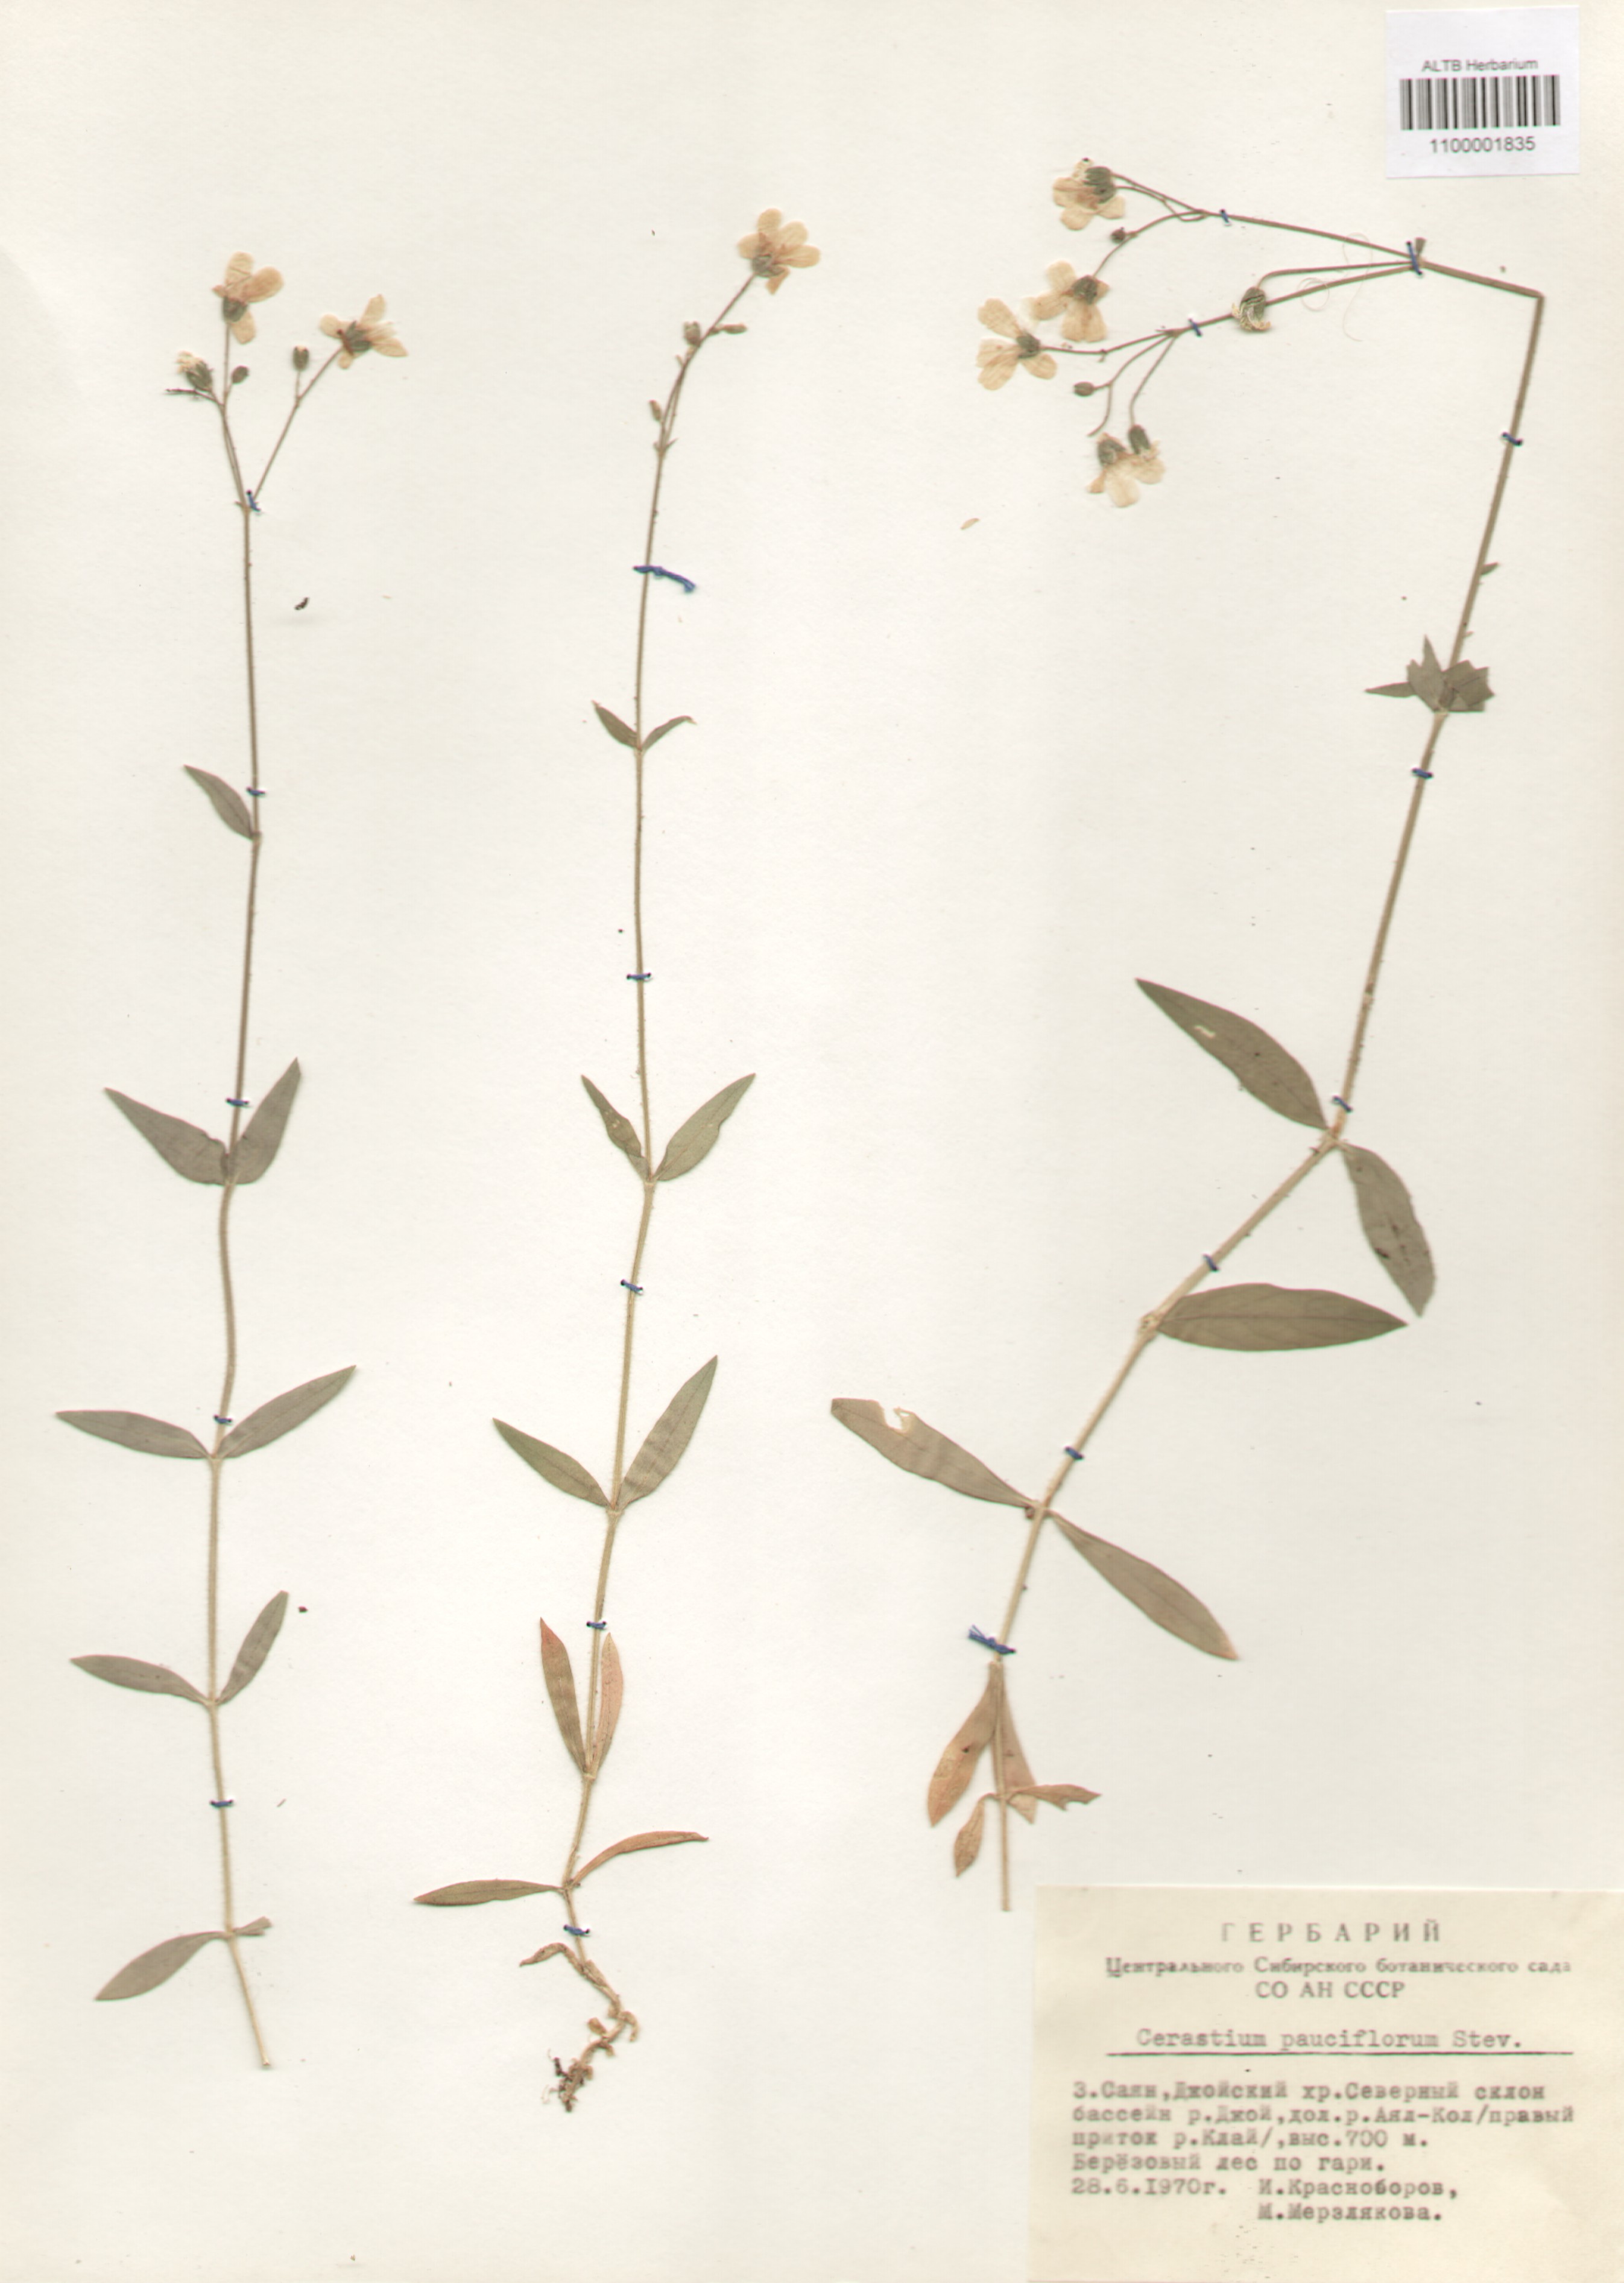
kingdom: Plantae
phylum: Tracheophyta
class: Magnoliopsida
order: Caryophyllales
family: Caryophyllaceae
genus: Cerastium
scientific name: Cerastium pauciflorum
